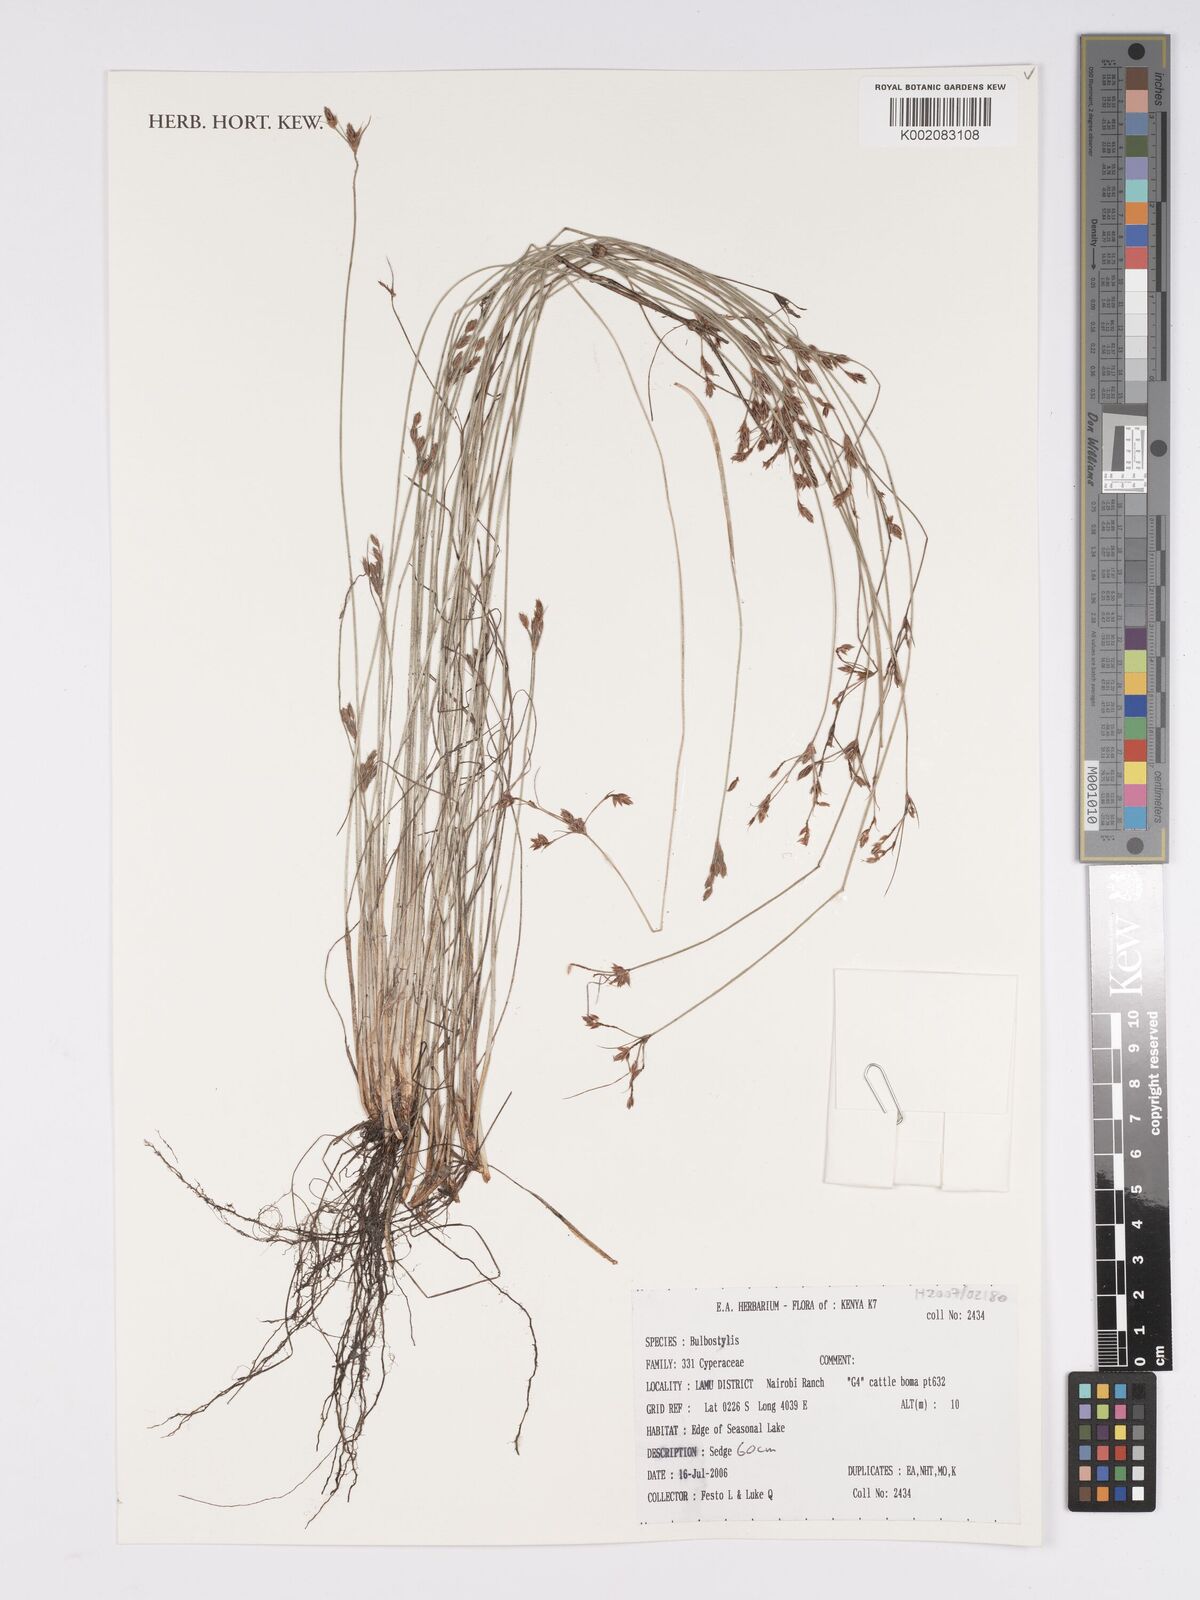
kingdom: Plantae
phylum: Tracheophyta
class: Magnoliopsida
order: Asterales
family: Asteraceae
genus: Bulbostylis
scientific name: Bulbostylis
